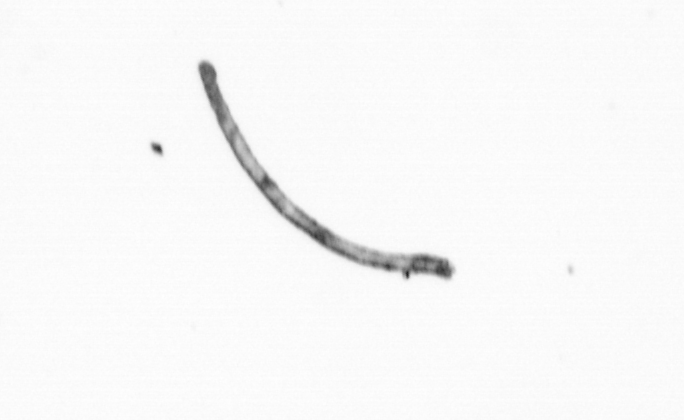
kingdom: Chromista
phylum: Ochrophyta
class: Bacillariophyceae
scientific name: Bacillariophyceae
